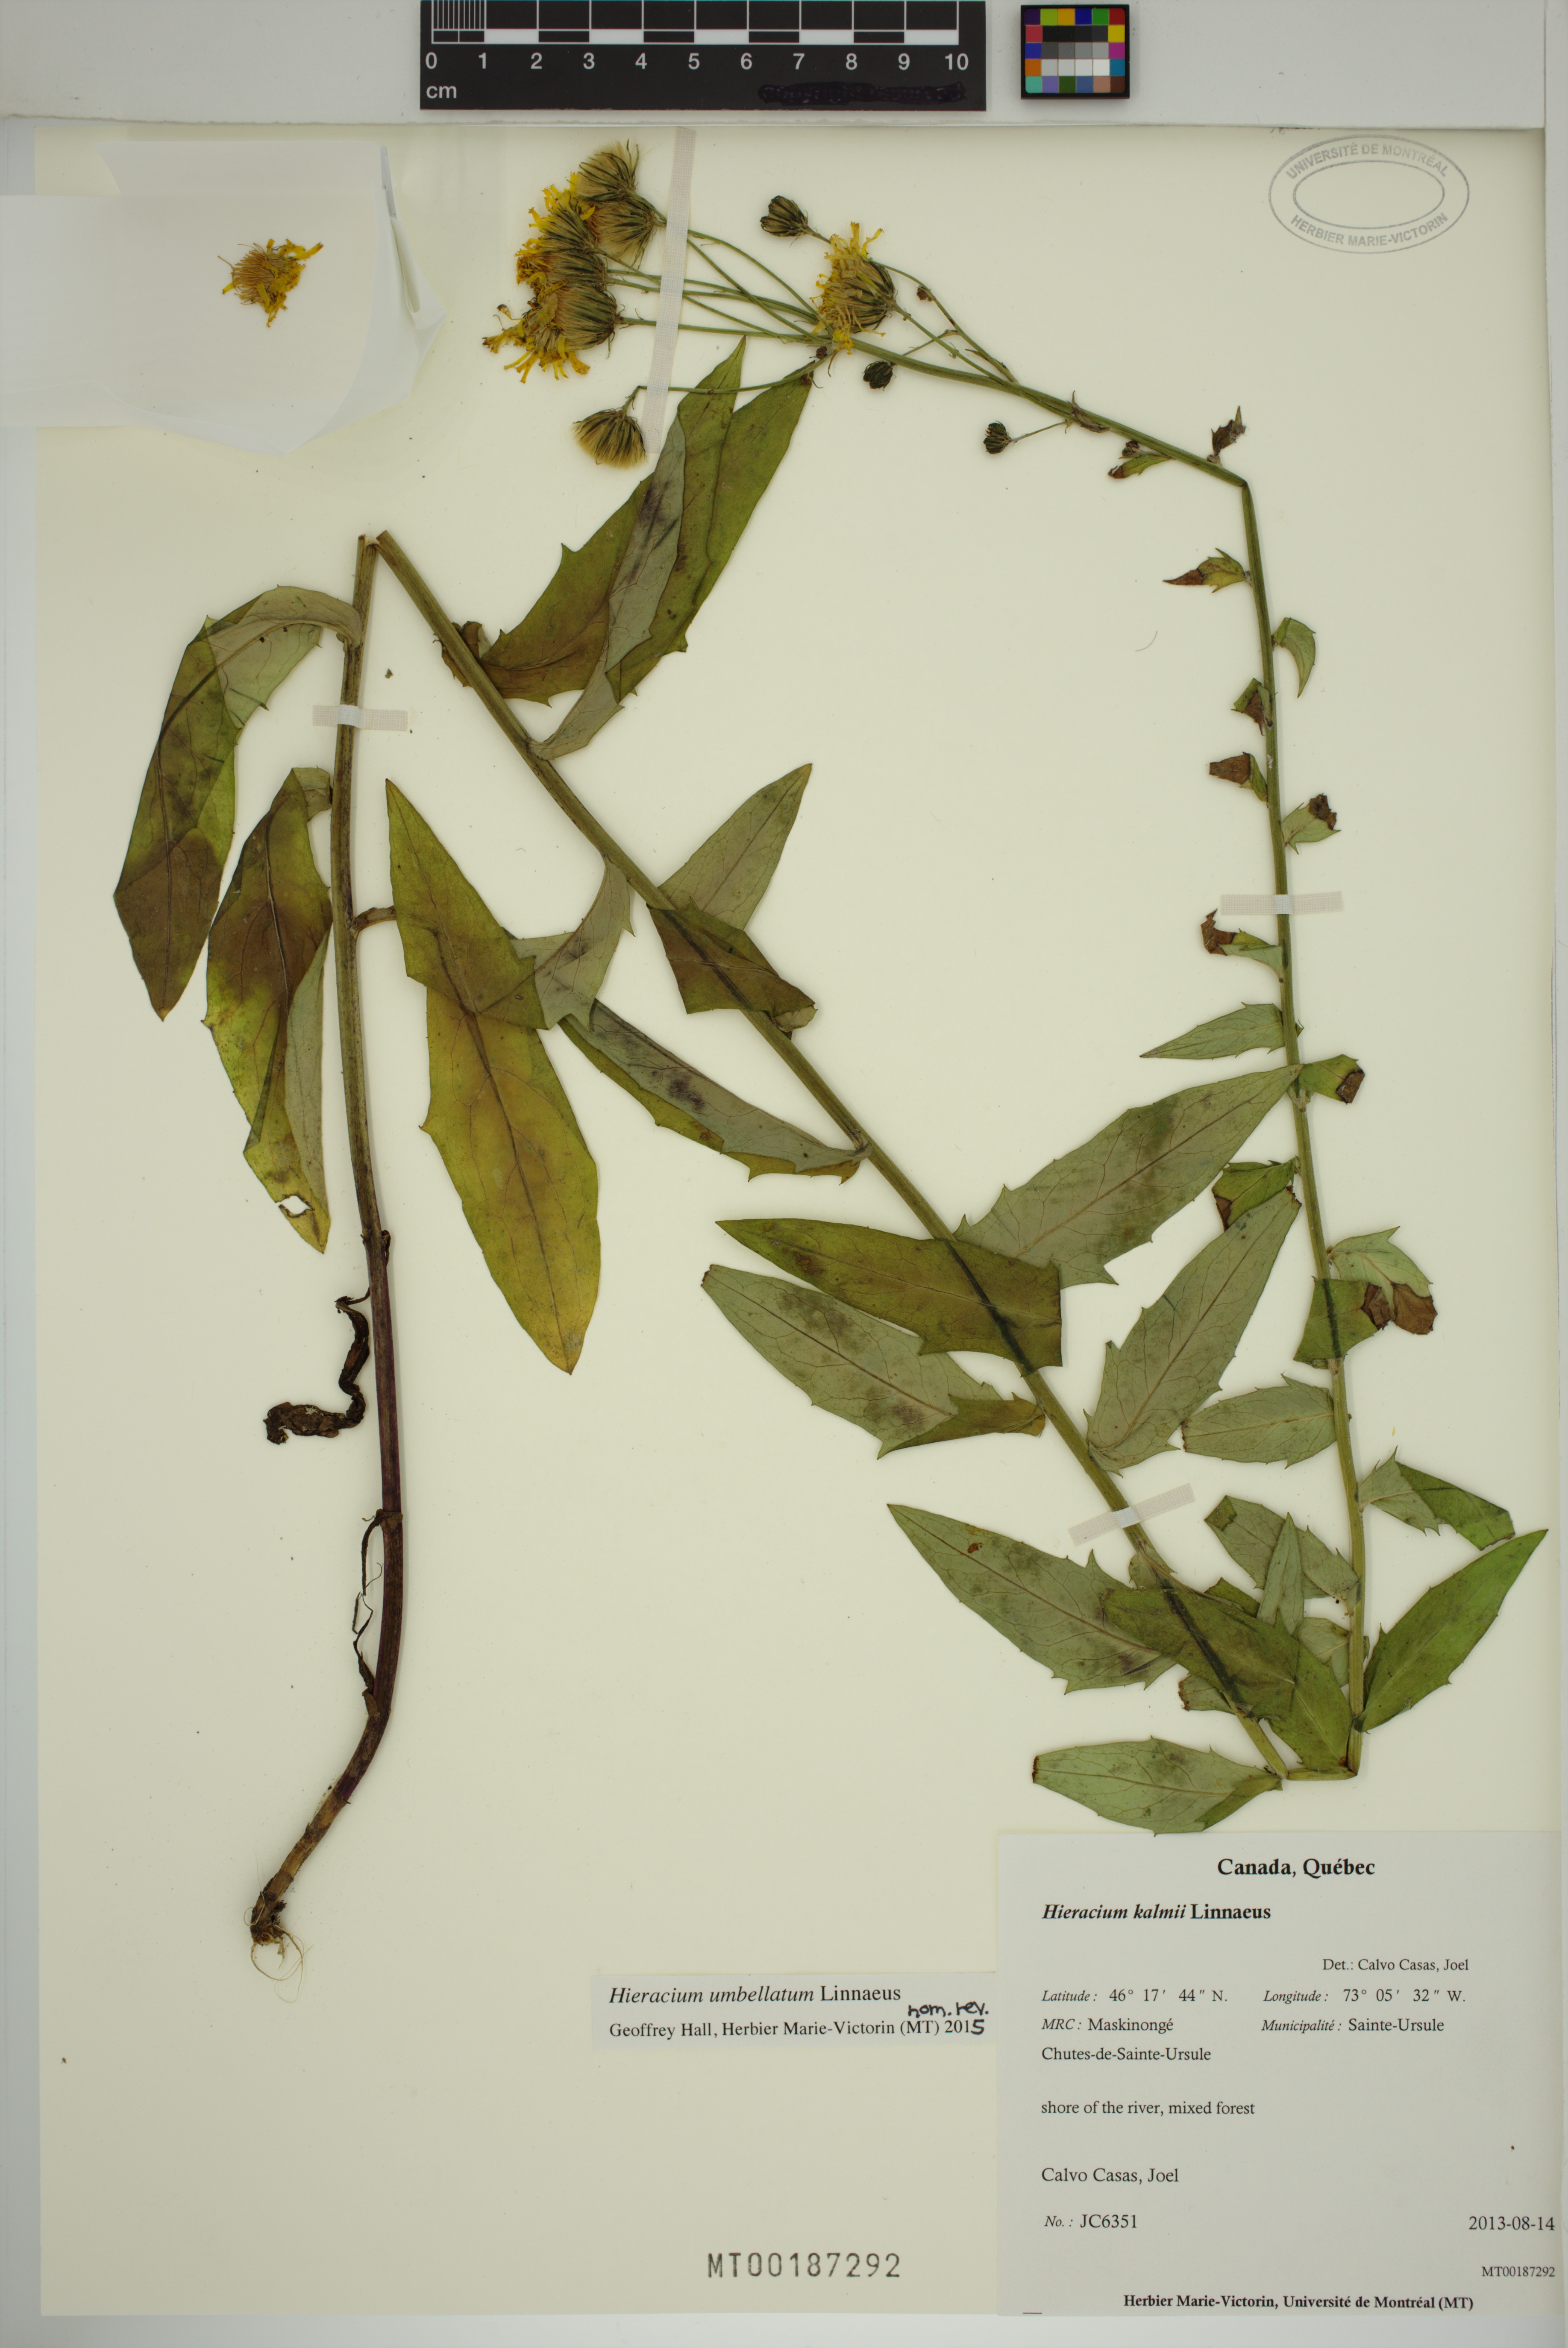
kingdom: Plantae
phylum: Tracheophyta
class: Magnoliopsida
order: Asterales
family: Asteraceae
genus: Hieracium
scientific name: Hieracium umbellatum
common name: Northern hawkweed
